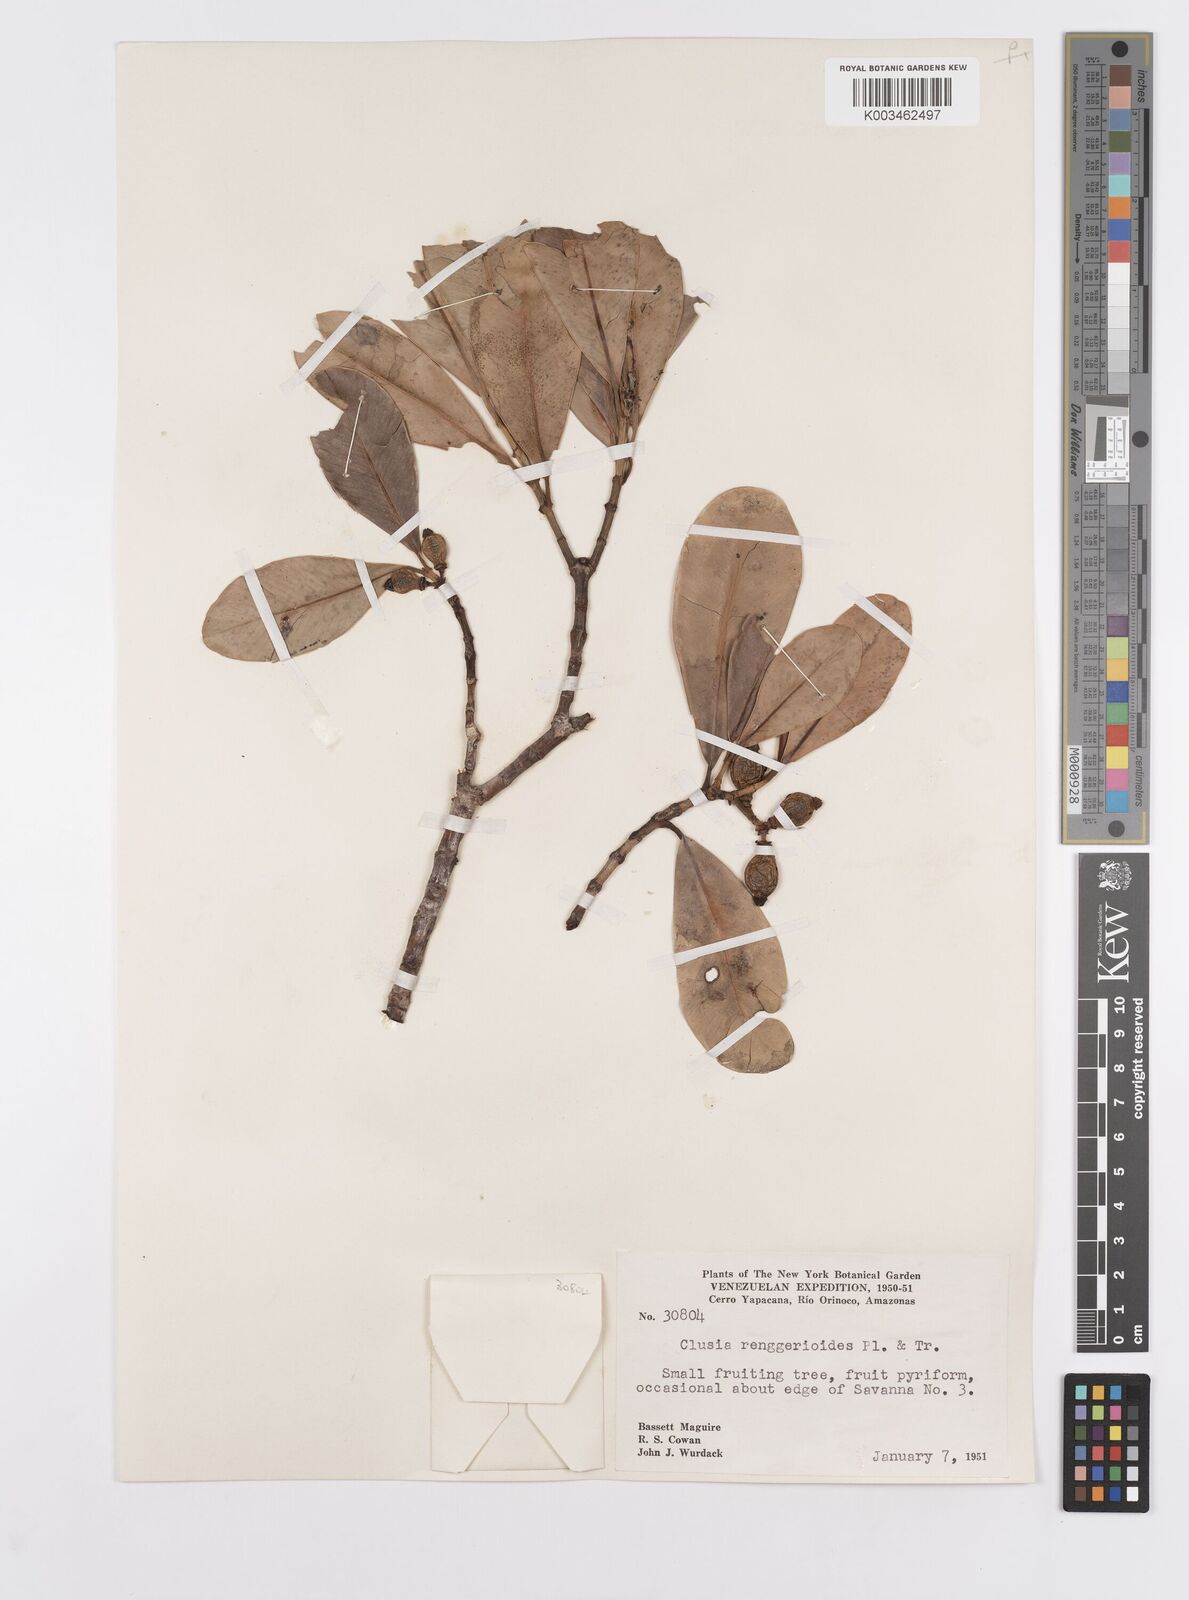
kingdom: Plantae
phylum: Tracheophyta
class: Magnoliopsida
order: Malpighiales
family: Clusiaceae
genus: Clusia
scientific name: Clusia renggerioides
